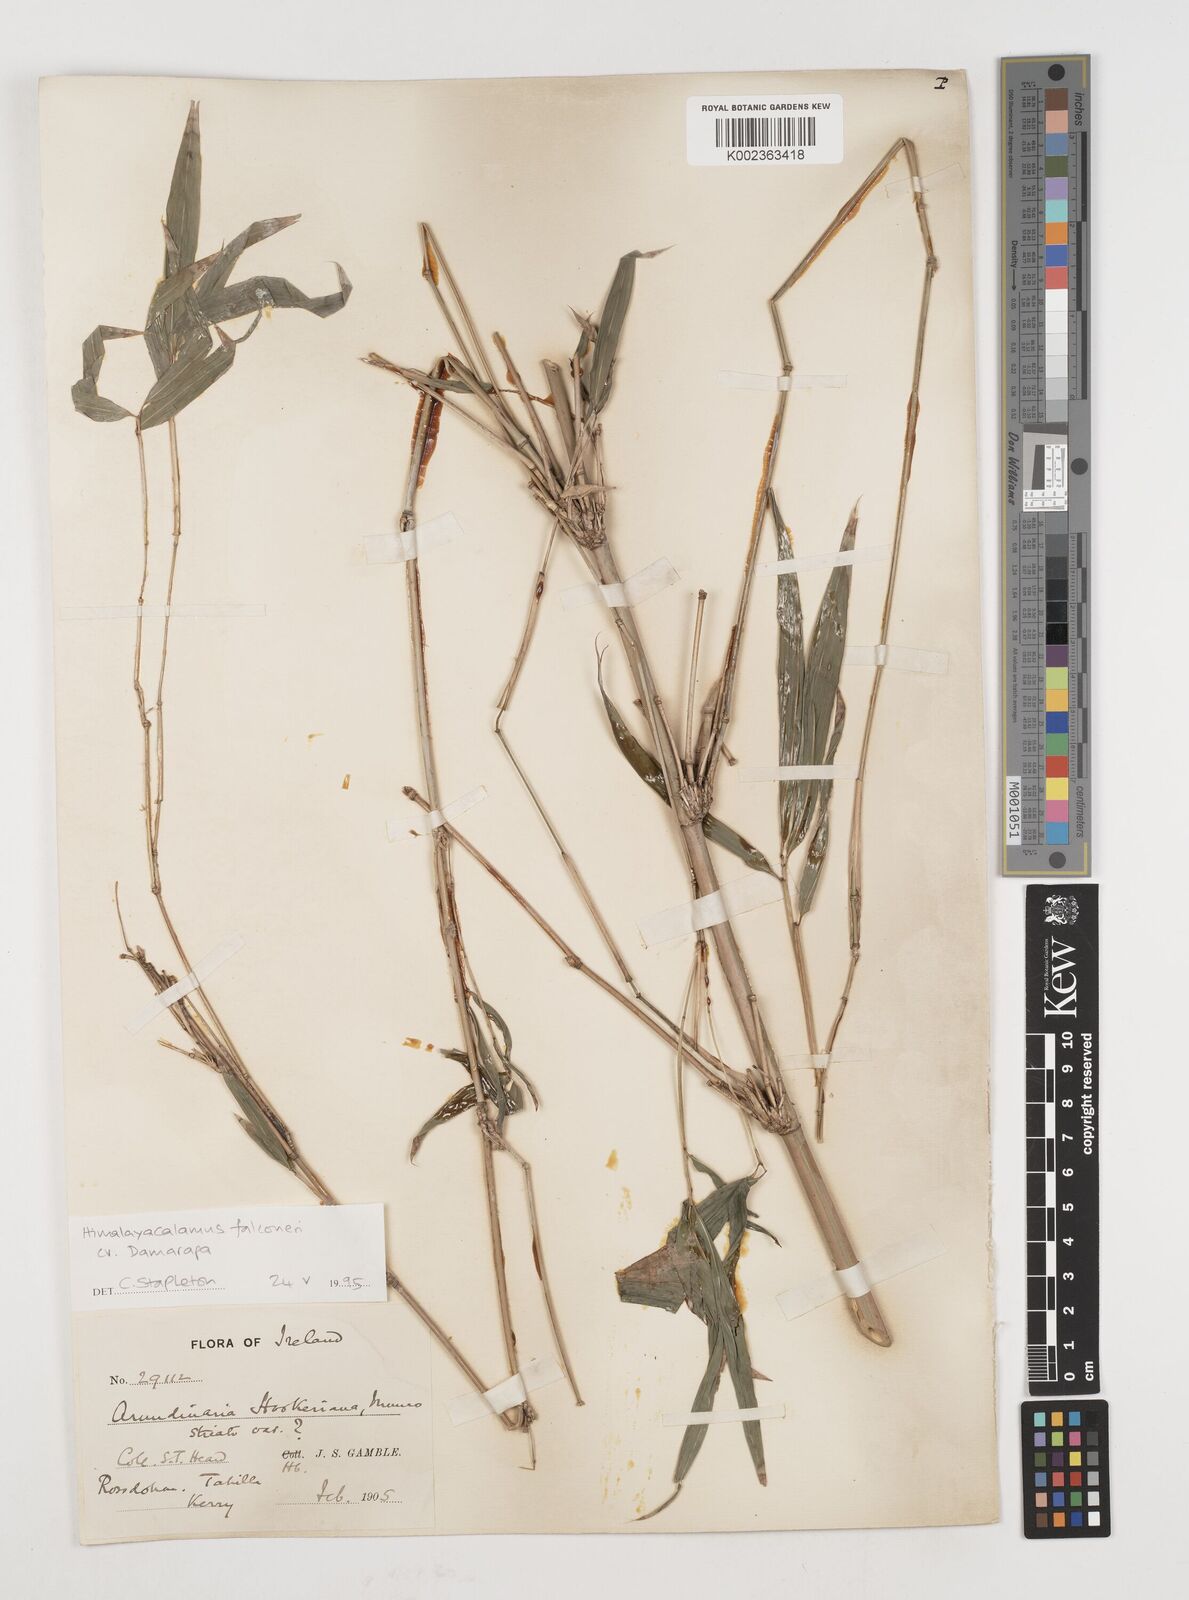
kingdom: Plantae
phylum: Tracheophyta
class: Liliopsida
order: Poales
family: Poaceae
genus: Himalayacalamus
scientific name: Himalayacalamus falconeri
